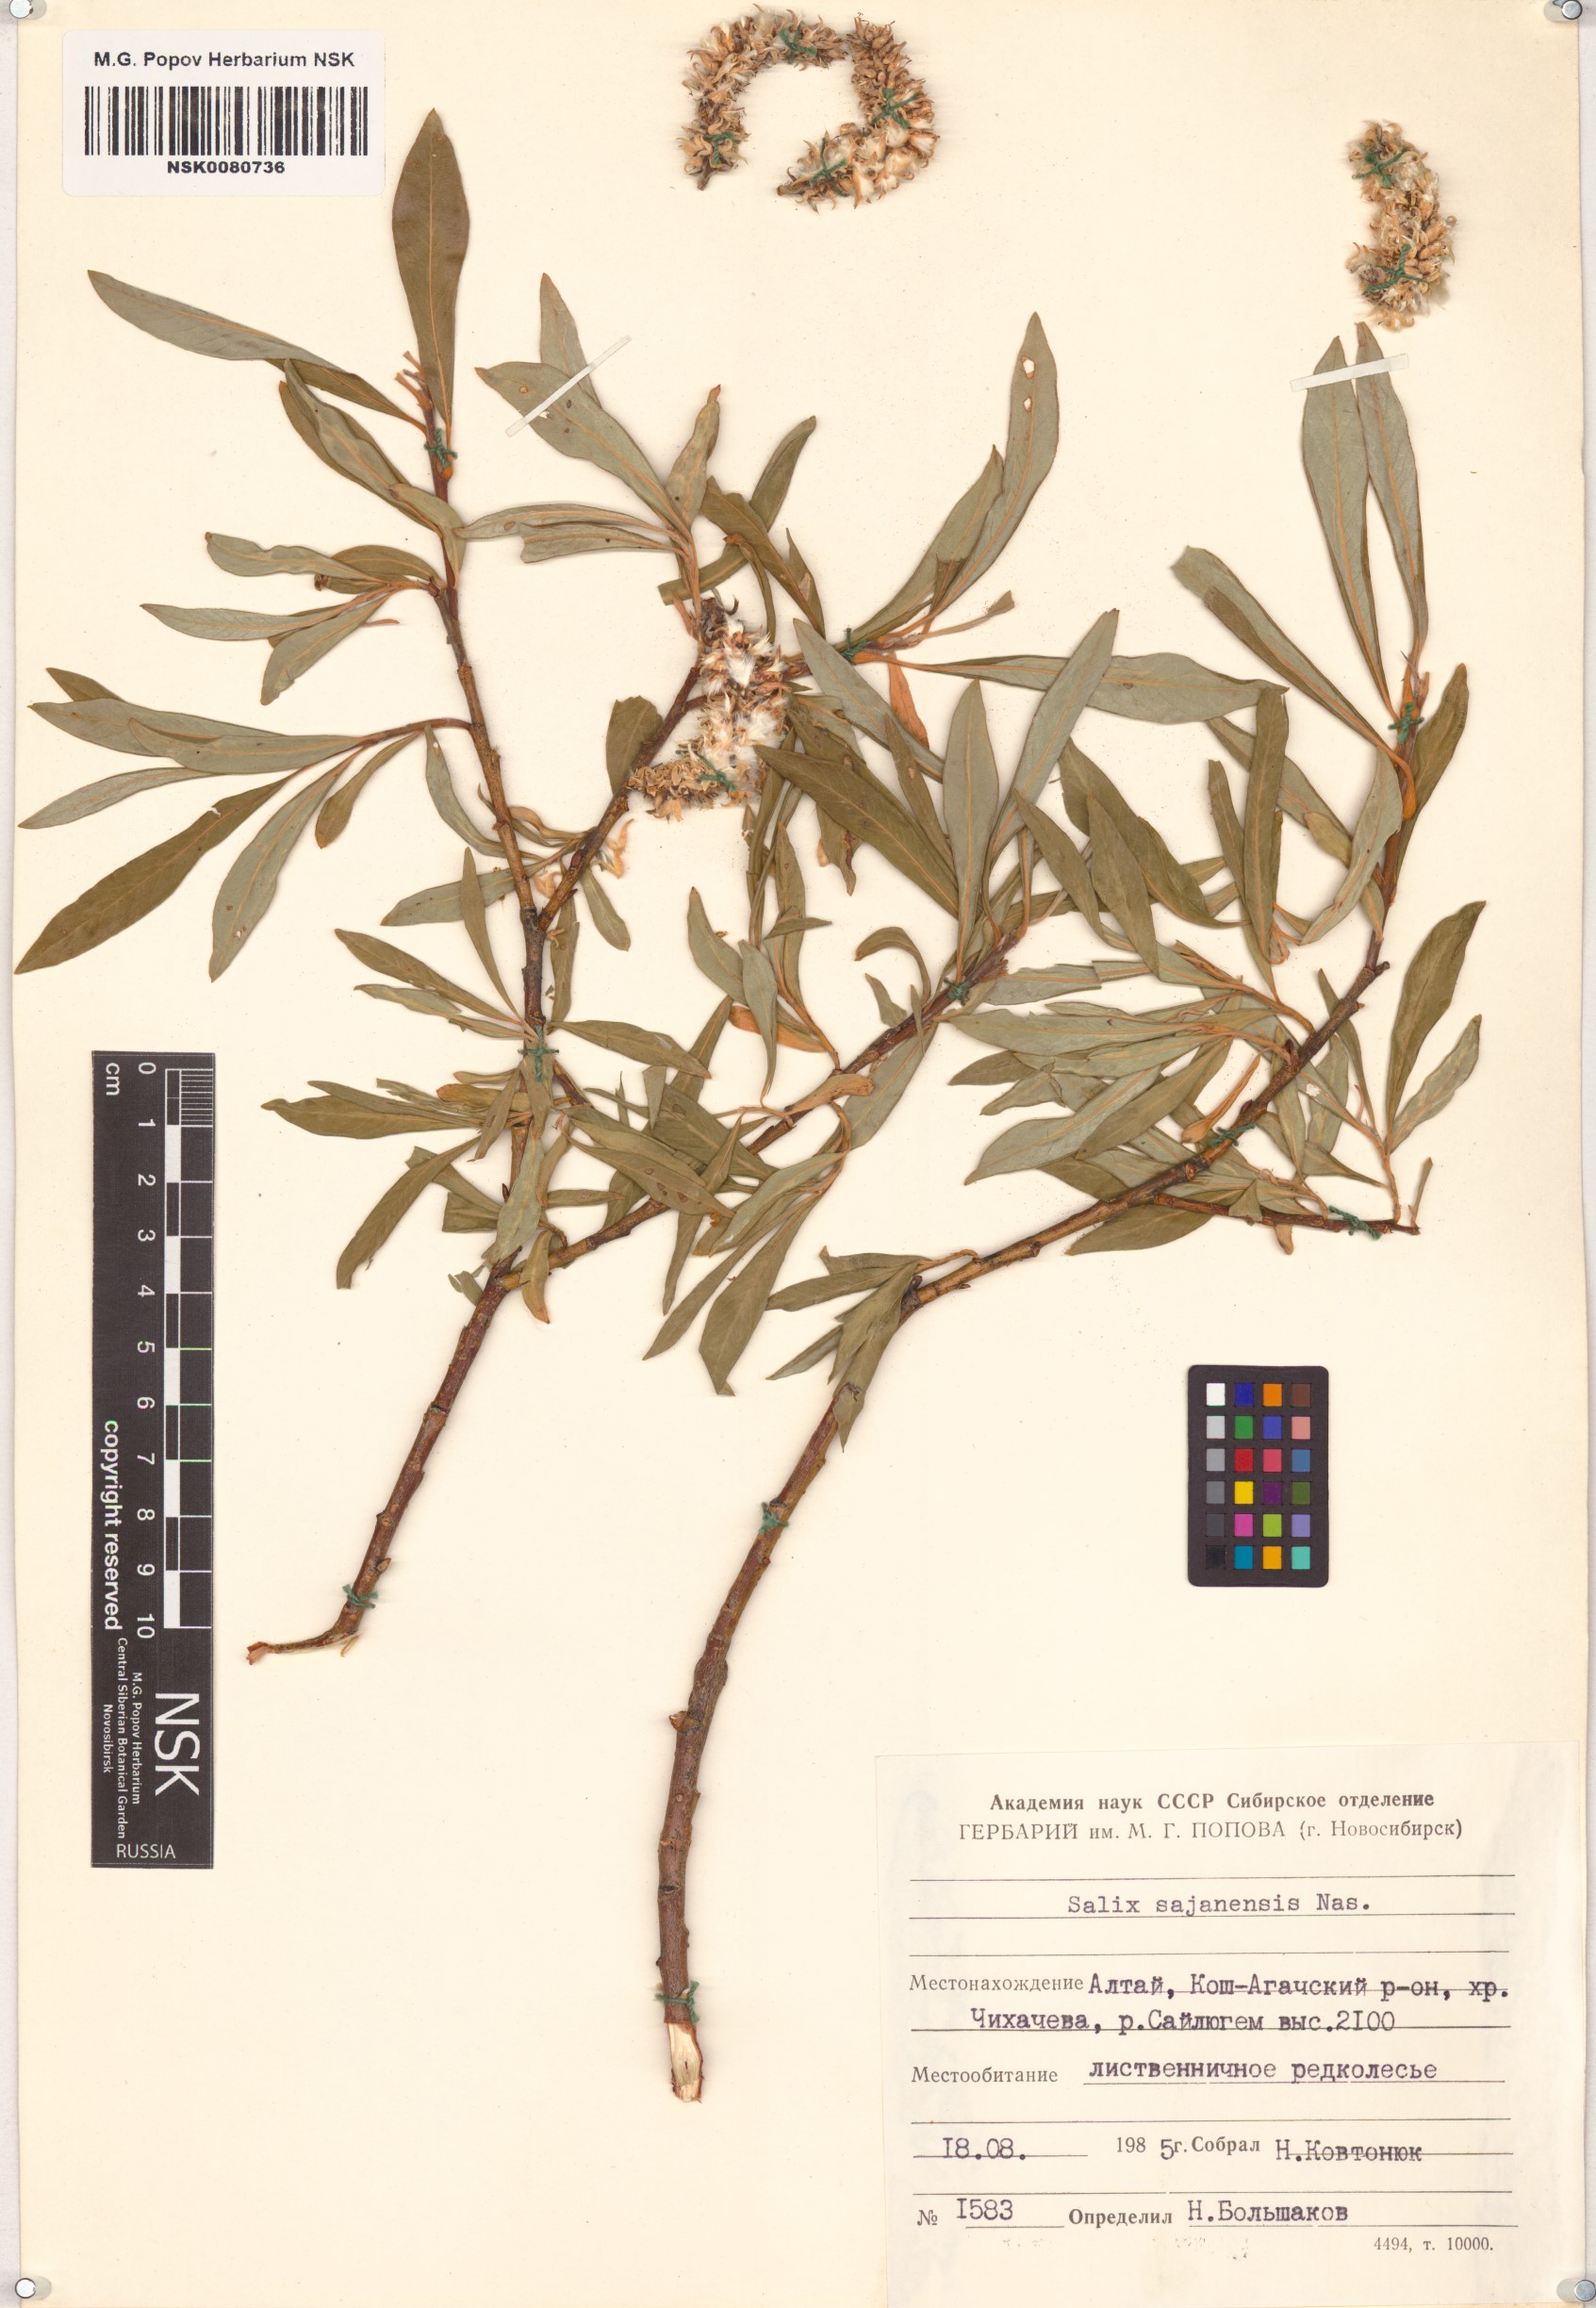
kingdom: Plantae
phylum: Tracheophyta
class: Magnoliopsida
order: Malpighiales
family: Salicaceae
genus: Salix
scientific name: Salix sajanensis
